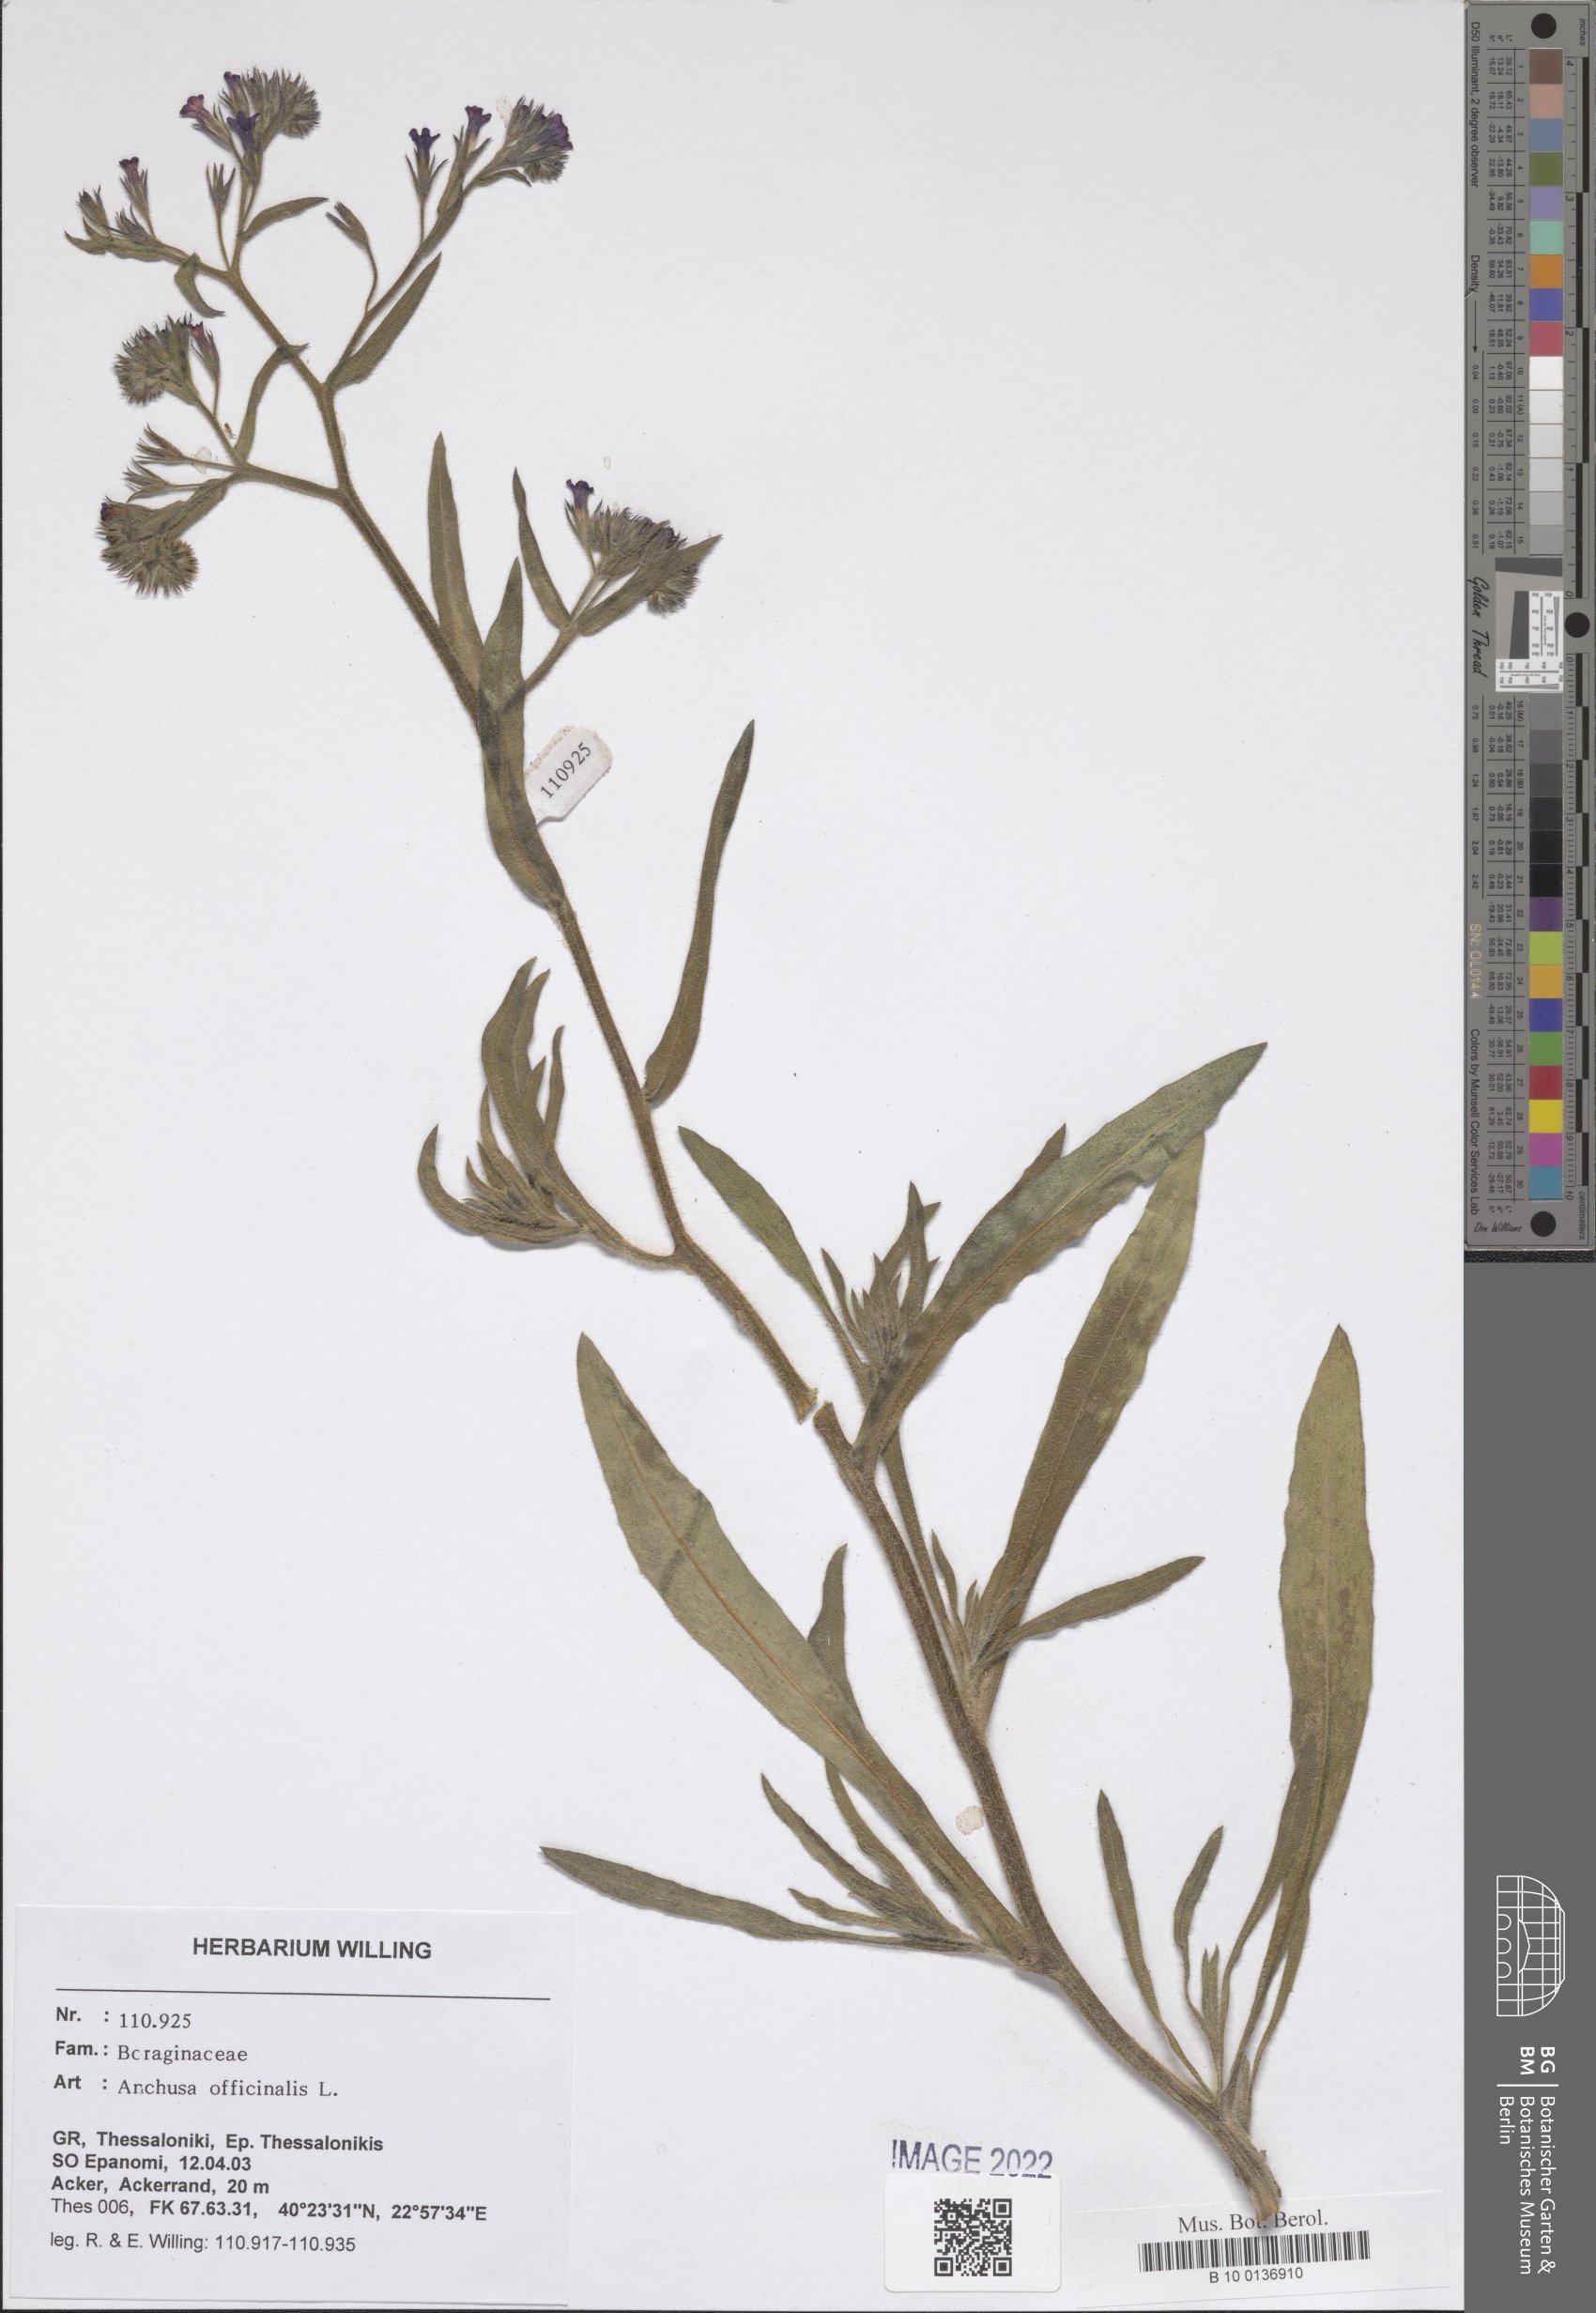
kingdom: Plantae
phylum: Tracheophyta
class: Magnoliopsida
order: Boraginales
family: Boraginaceae
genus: Anchusa
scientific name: Anchusa officinalis
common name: Alkanet
